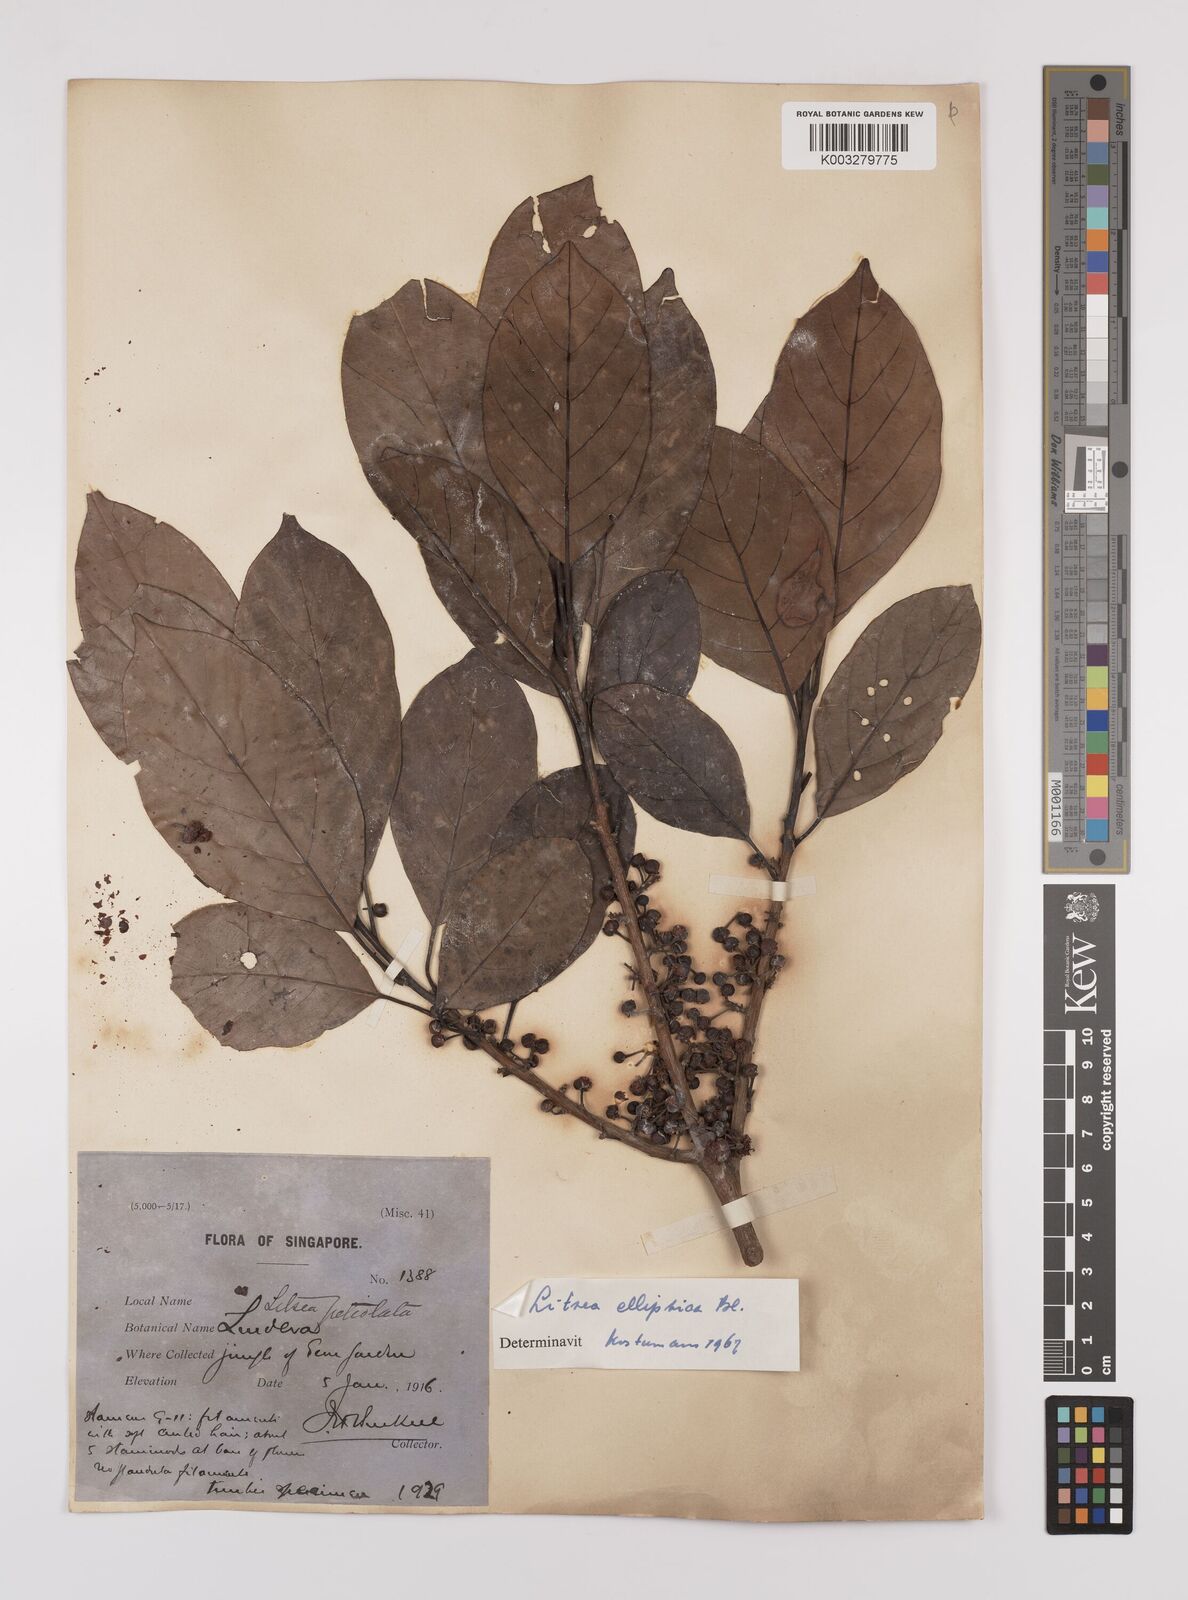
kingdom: Plantae
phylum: Tracheophyta
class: Magnoliopsida
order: Laurales
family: Lauraceae
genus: Litsea
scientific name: Litsea elliptica
